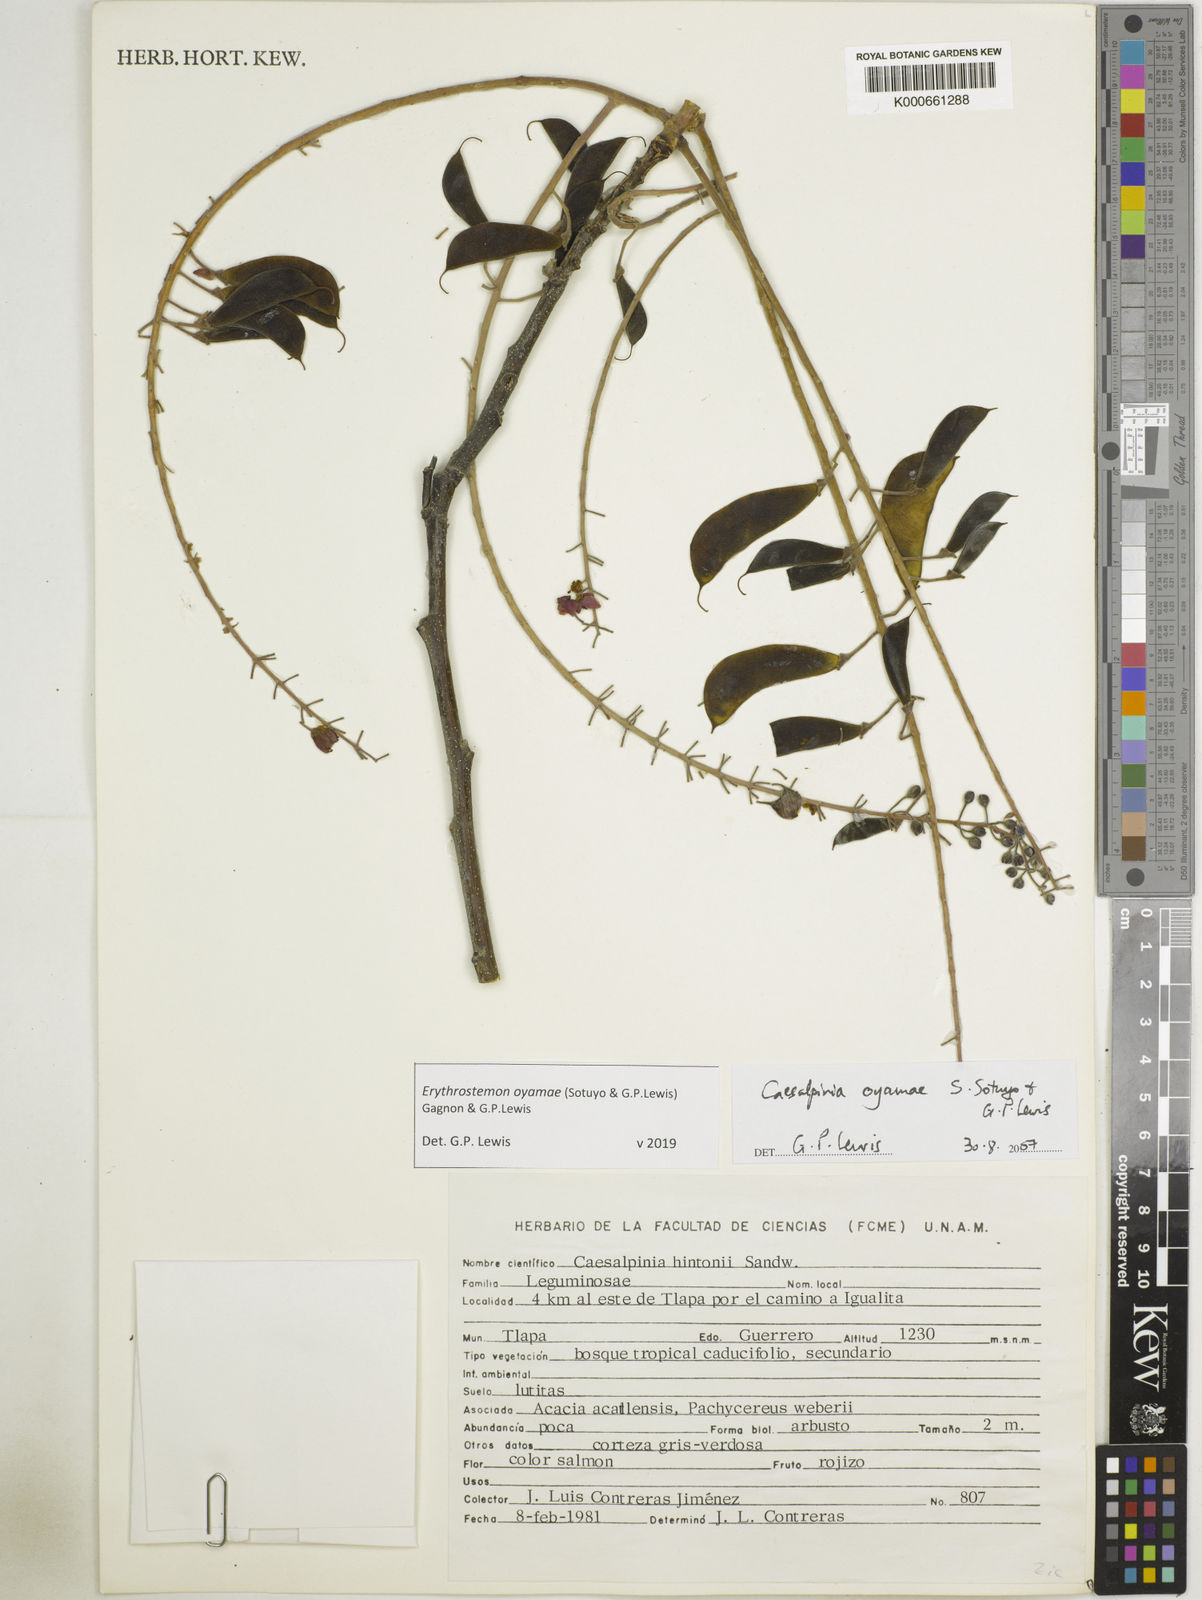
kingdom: Plantae
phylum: Tracheophyta
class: Magnoliopsida
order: Fabales
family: Fabaceae
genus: Erythrostemon
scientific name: Erythrostemon oyamae
